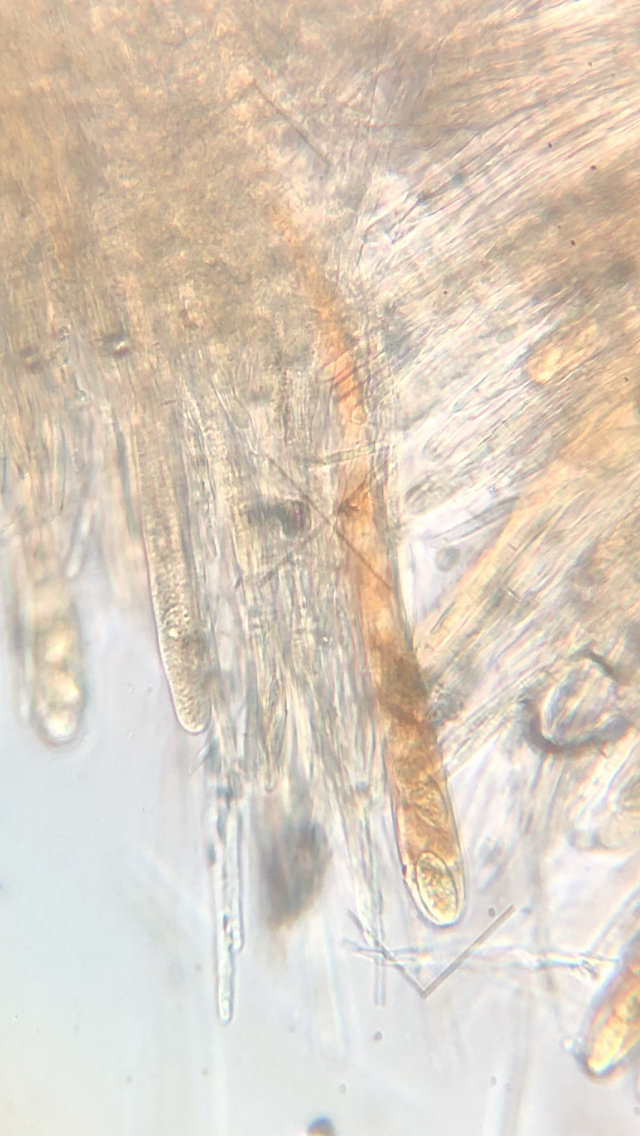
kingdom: Fungi
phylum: Ascomycota
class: Leotiomycetes
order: Helotiales
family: Lachnaceae
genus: Lachnellula
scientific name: Lachnellula occidentalis
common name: Larch disco
